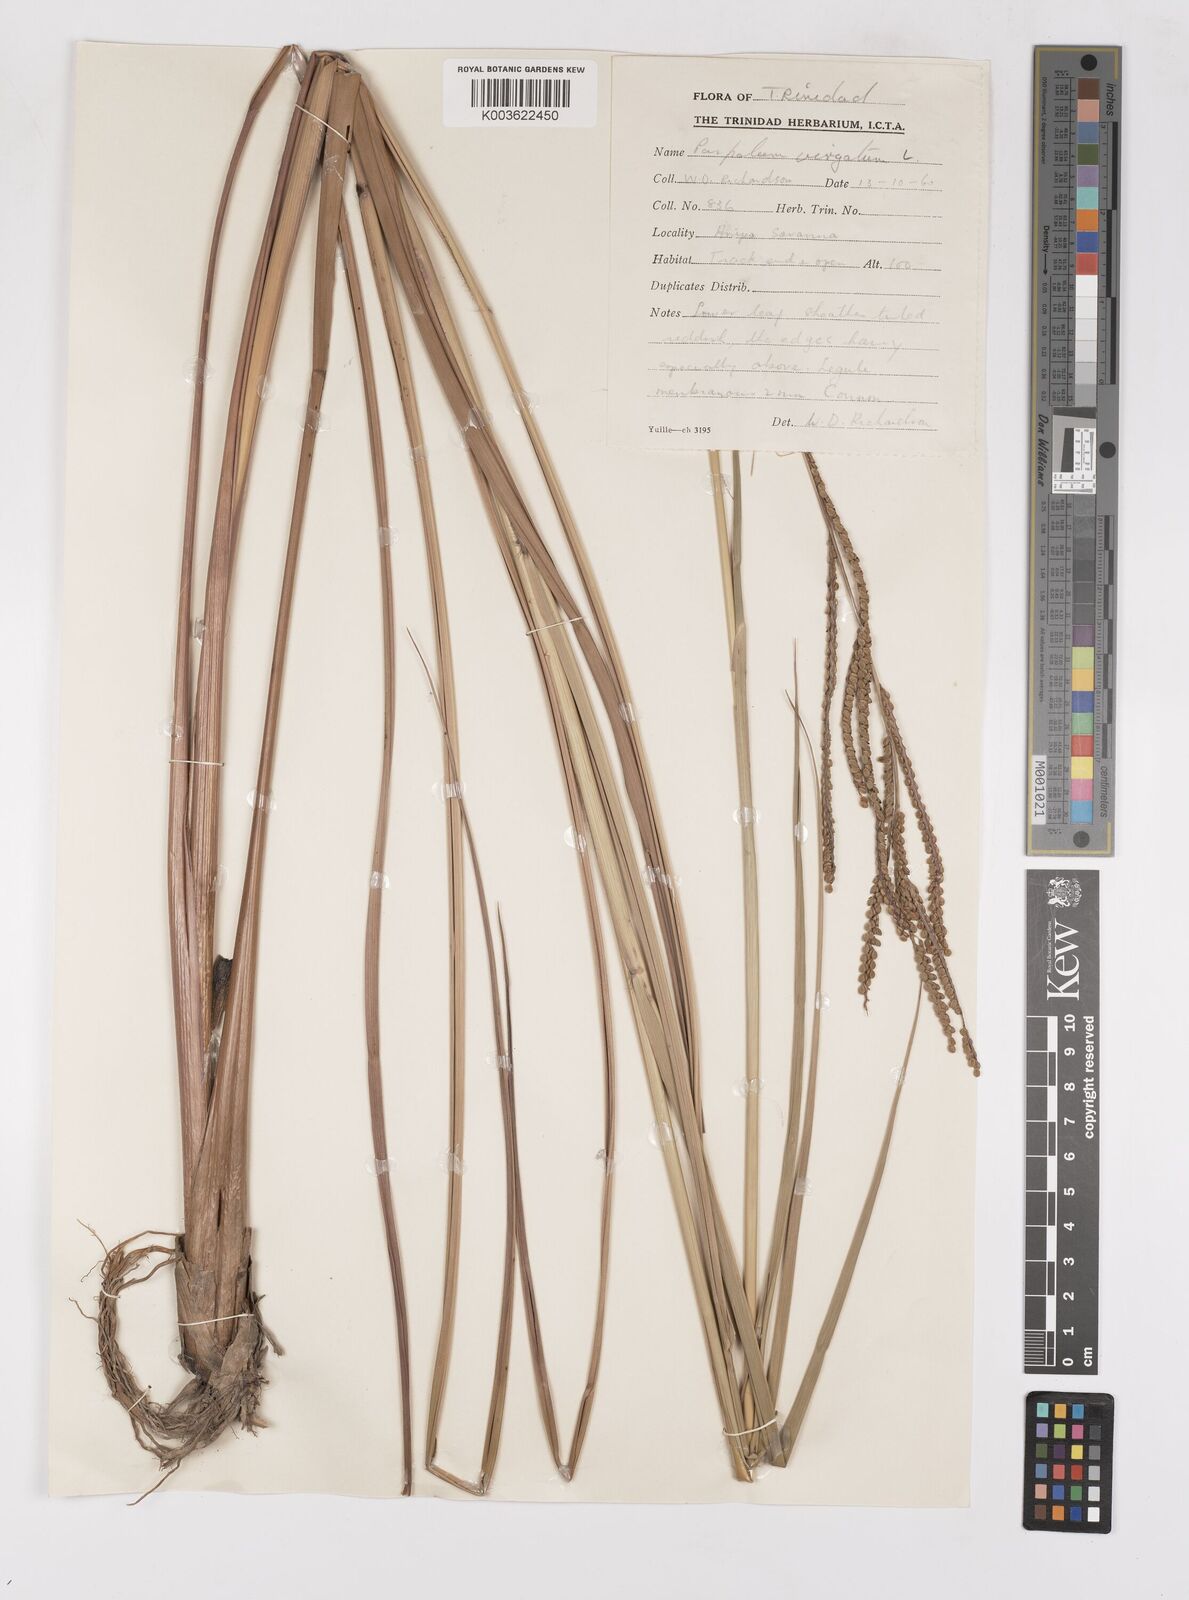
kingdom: Plantae
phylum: Tracheophyta
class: Liliopsida
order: Poales
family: Poaceae
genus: Paspalum
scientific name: Paspalum virgatum
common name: Talquezal
